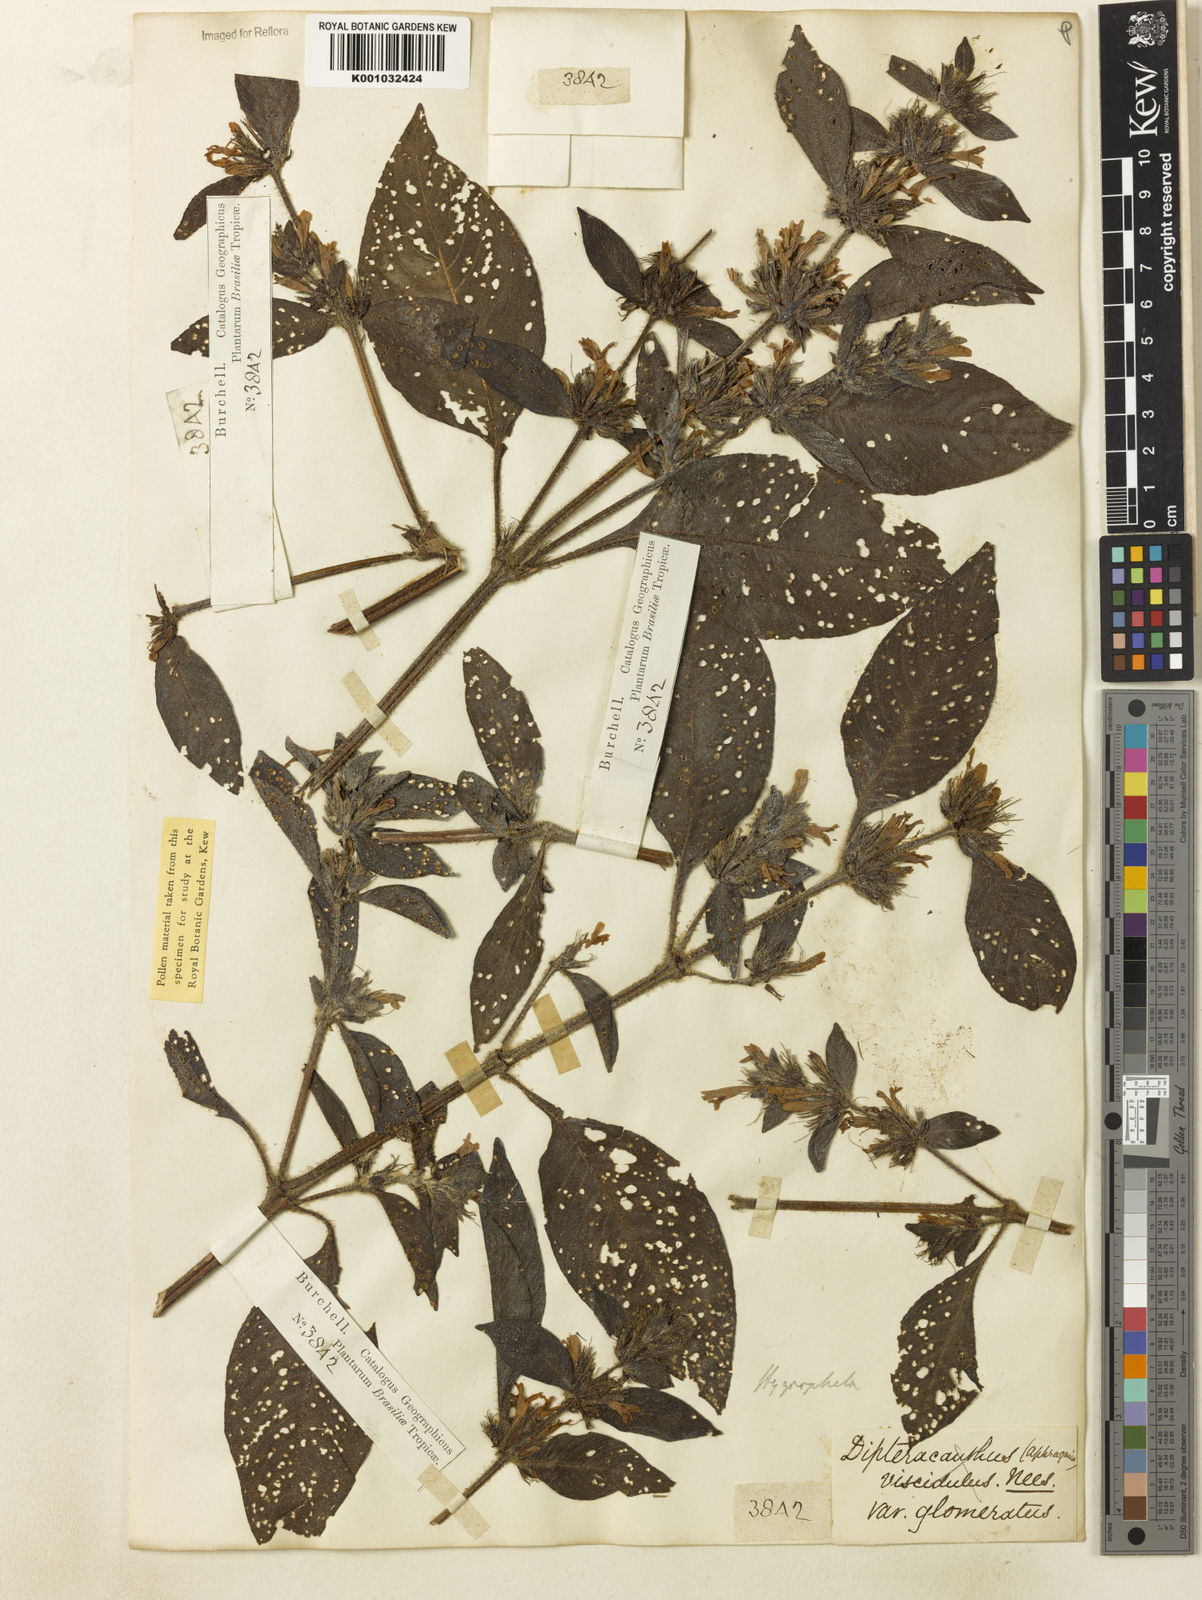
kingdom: Plantae
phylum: Tracheophyta
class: Magnoliopsida
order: Lamiales
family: Acanthaceae
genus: Hygrophila
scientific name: Hygrophila costata
